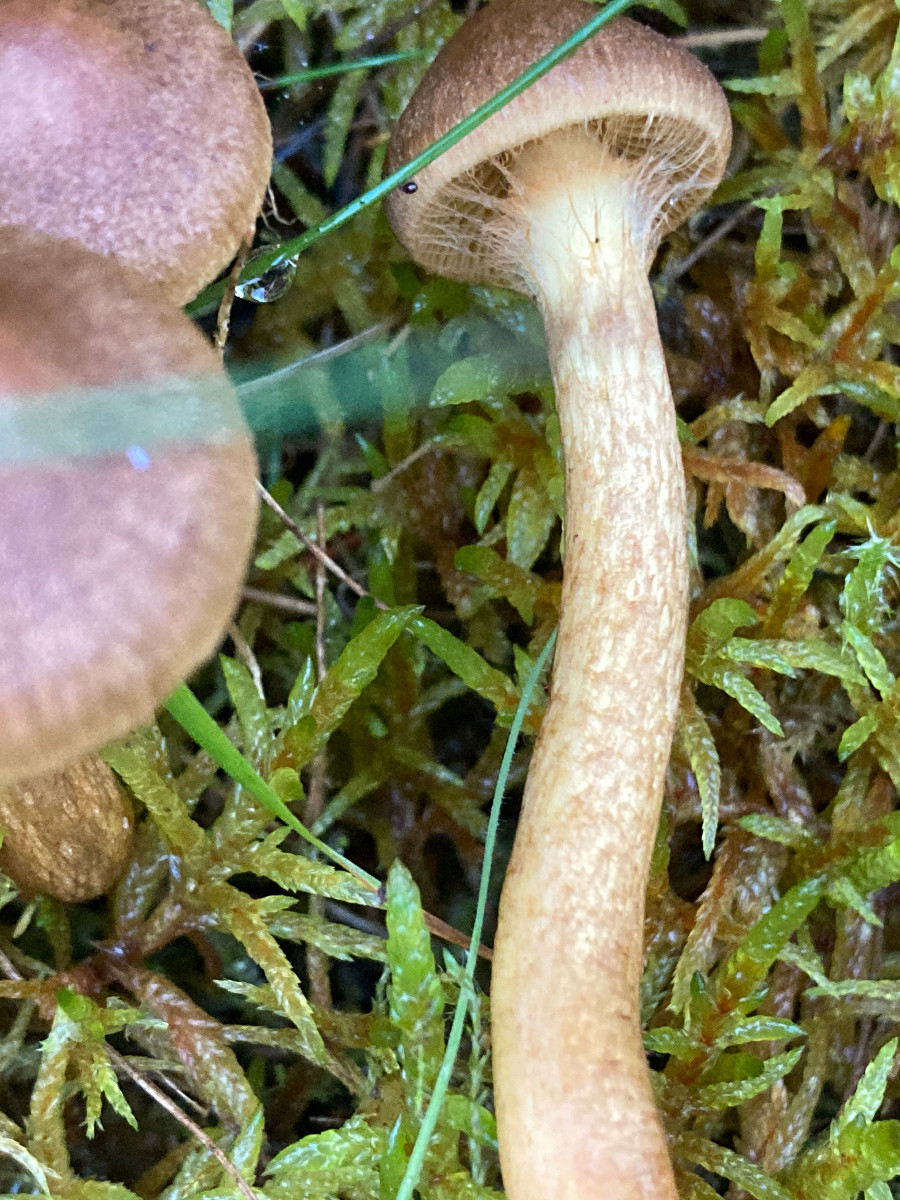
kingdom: Fungi
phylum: Basidiomycota
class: Agaricomycetes
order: Agaricales
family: Cortinariaceae
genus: Cortinarius
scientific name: Cortinarius
